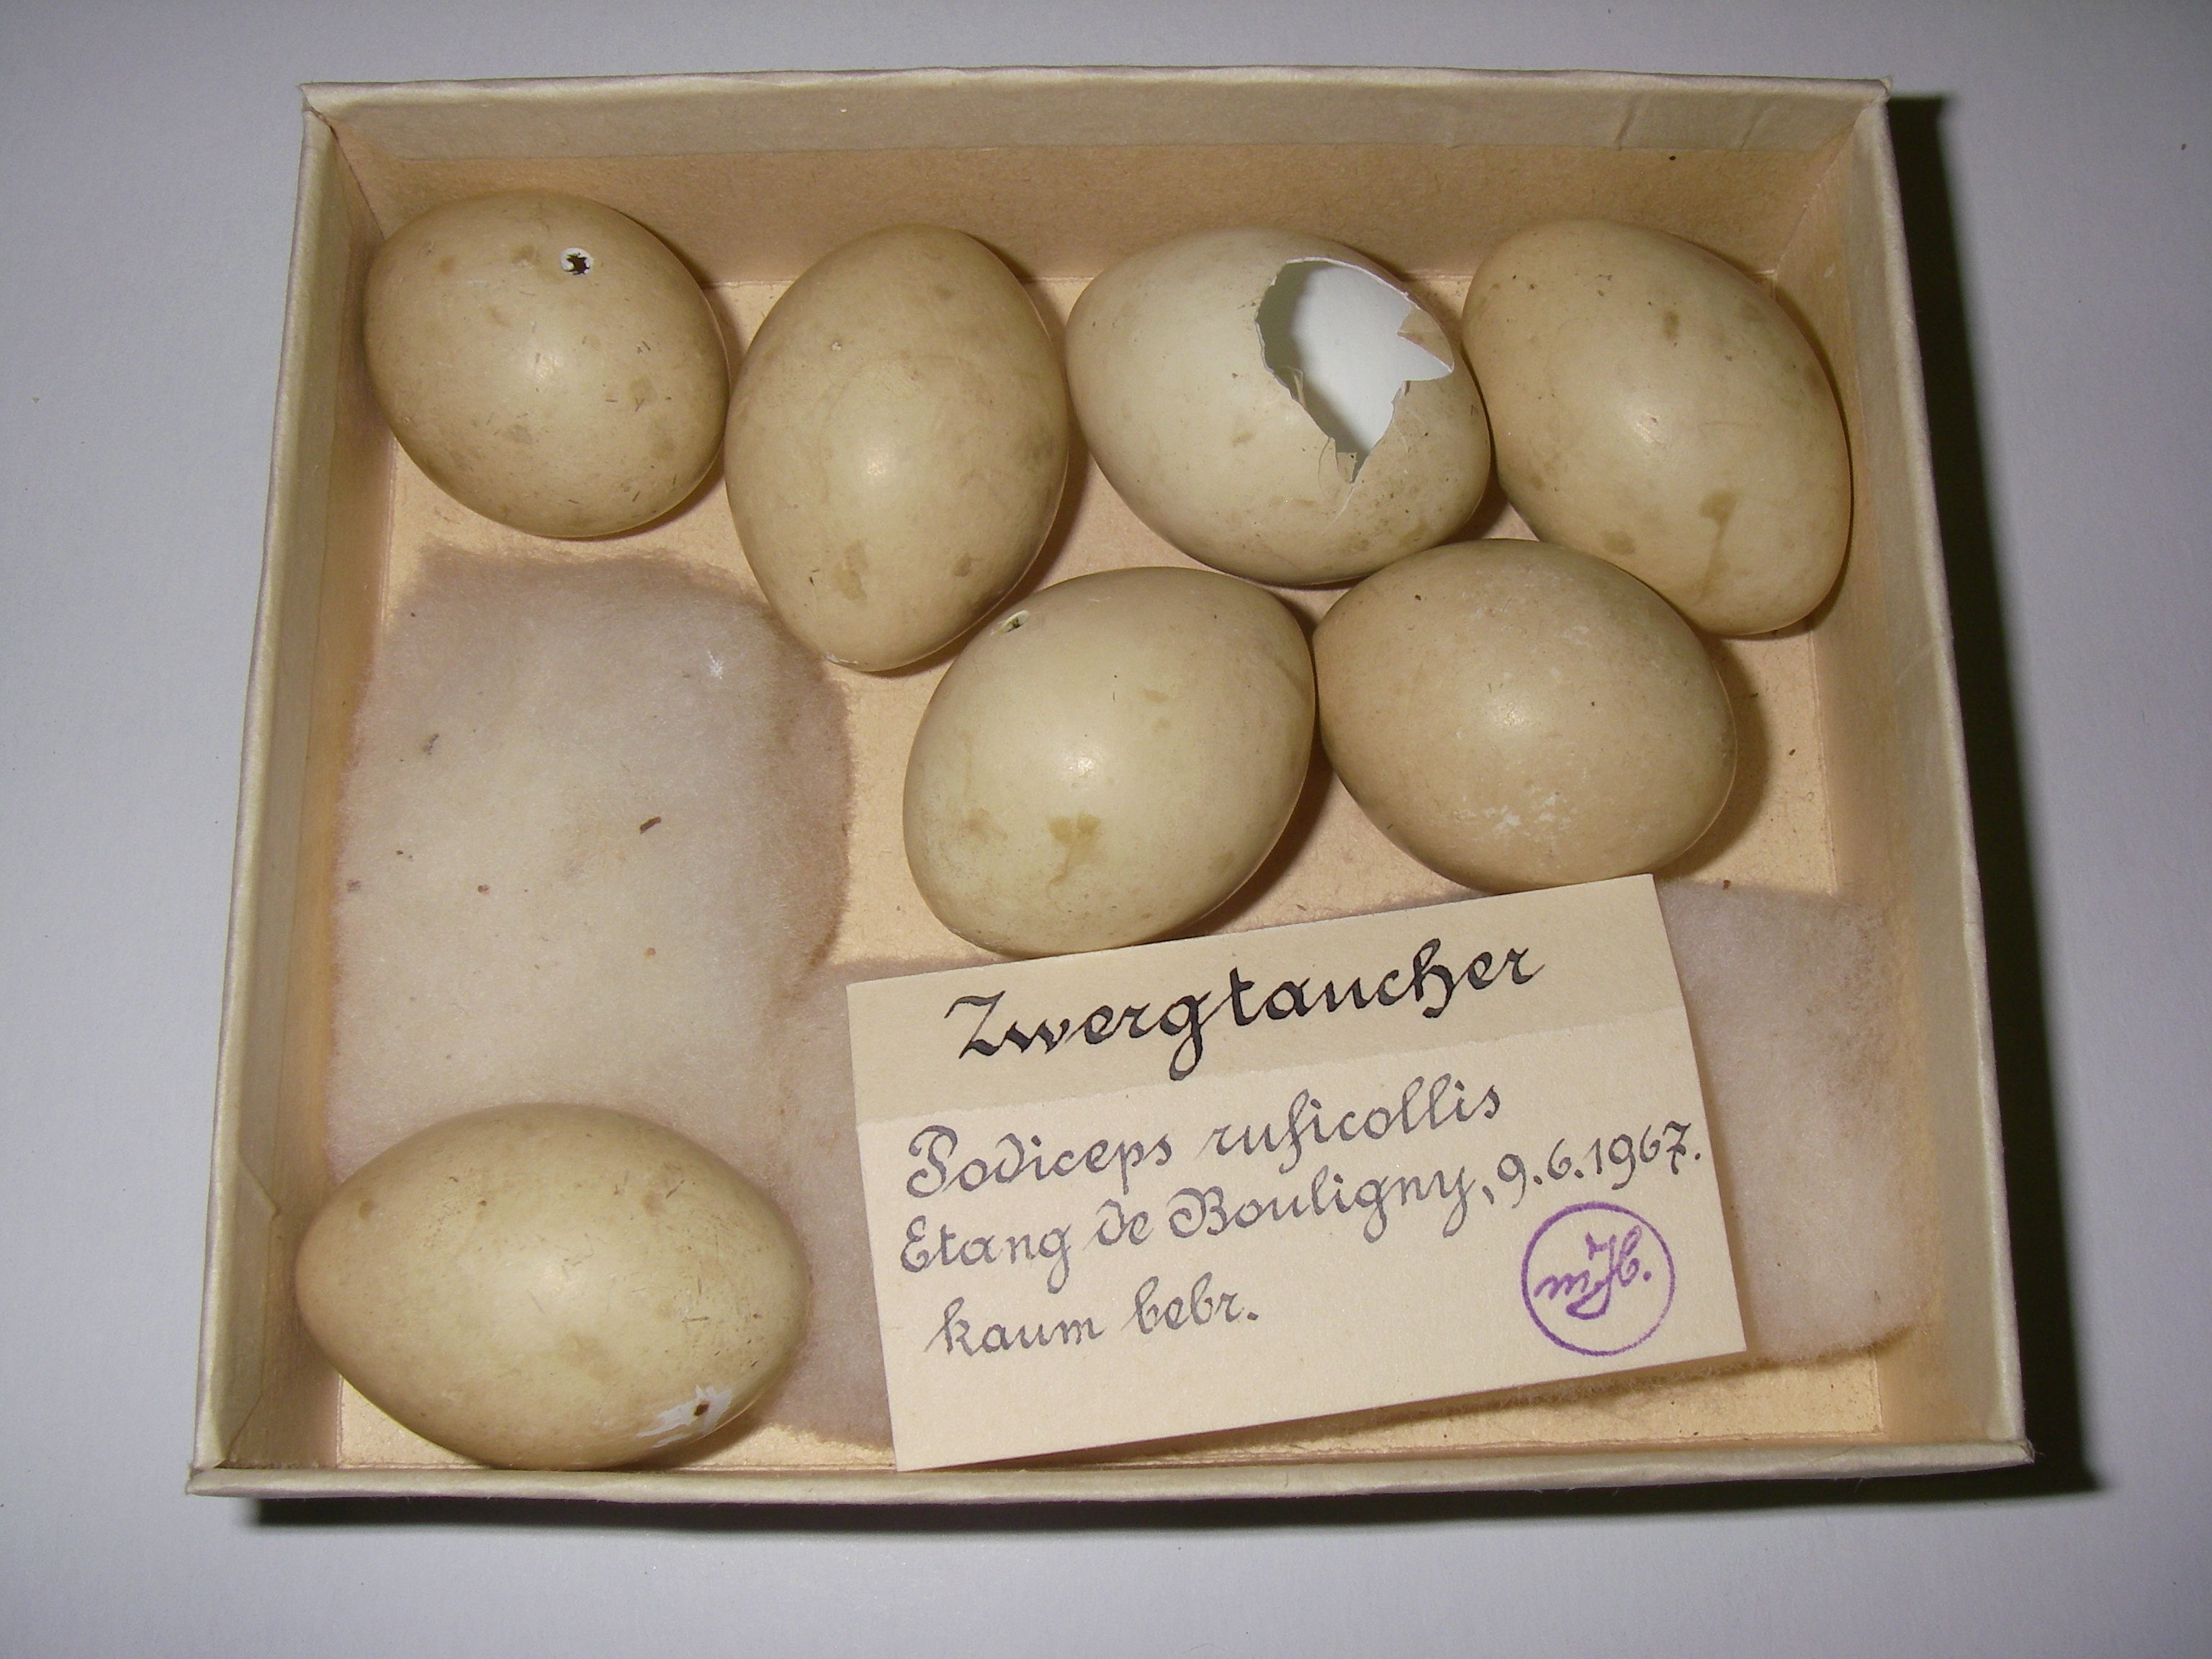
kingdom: Animalia
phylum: Chordata
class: Aves
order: Podicipediformes
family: Podicipedidae
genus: Tachybaptus
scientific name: Tachybaptus ruficollis
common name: Little grebe
